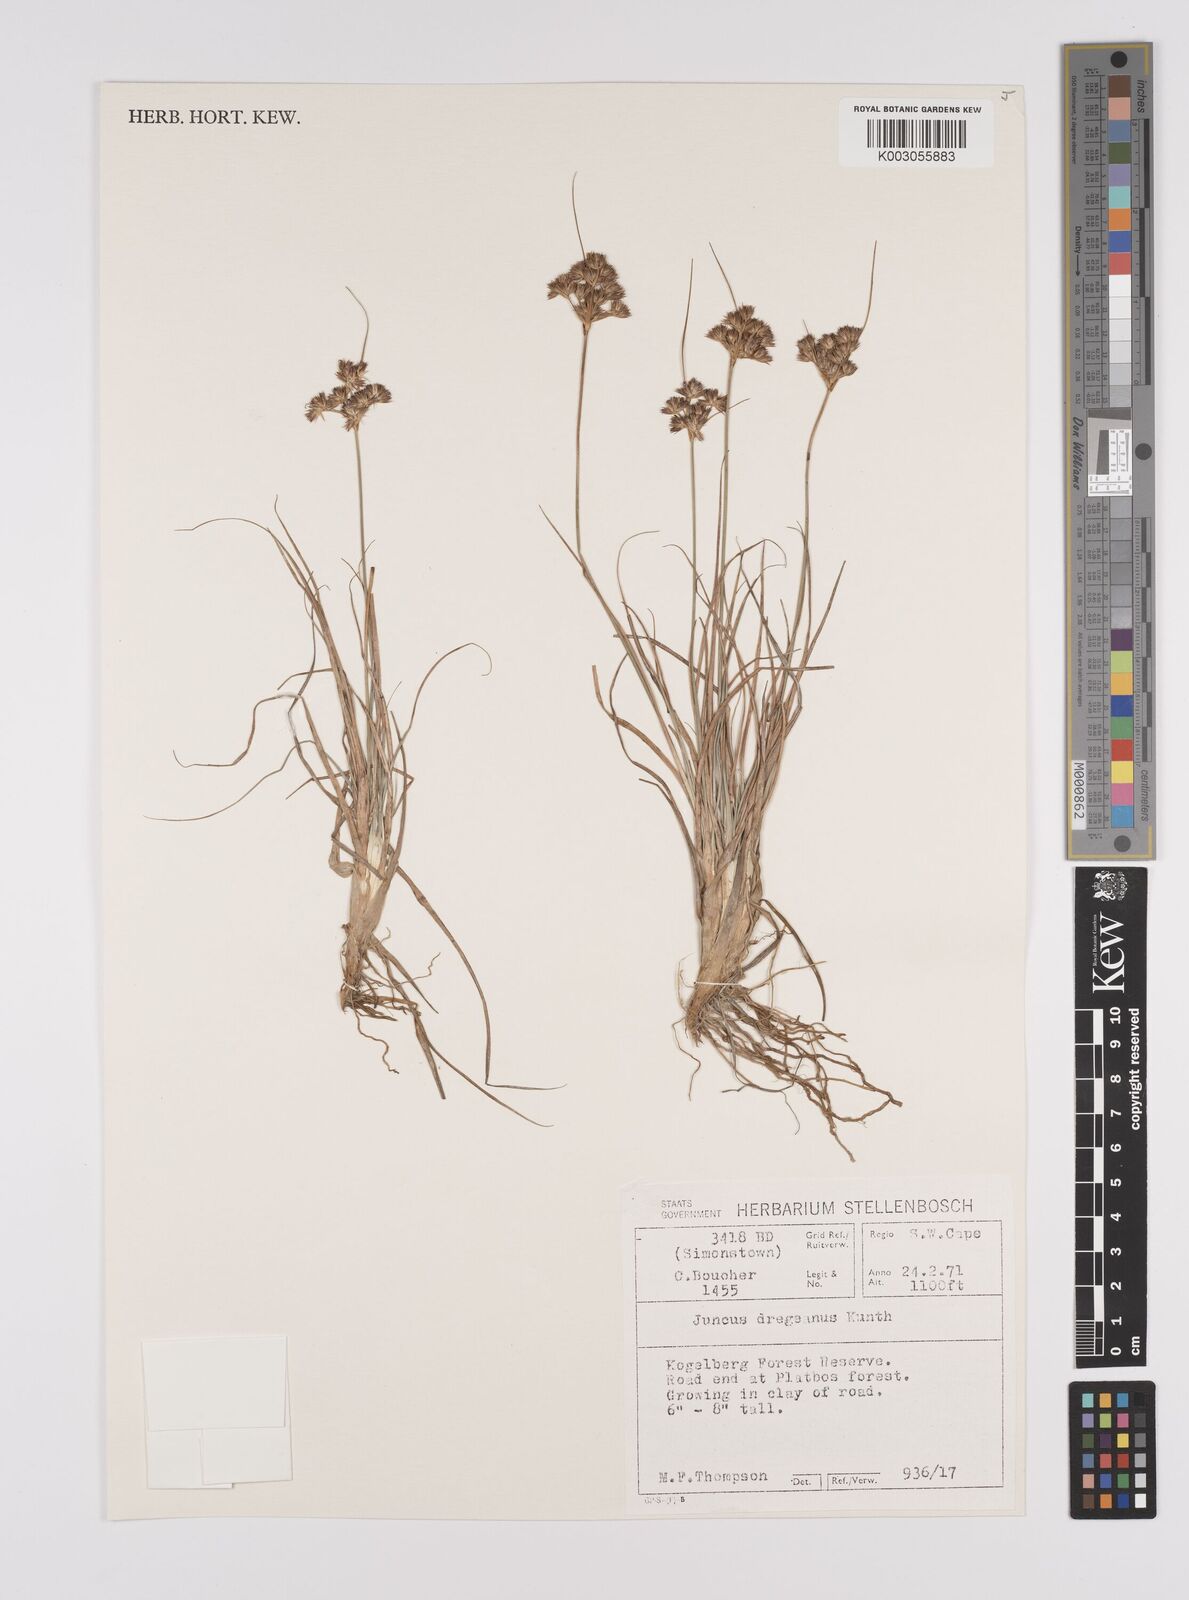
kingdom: Plantae
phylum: Tracheophyta
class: Liliopsida
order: Poales
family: Juncaceae
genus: Juncus
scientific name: Juncus dregeanus
